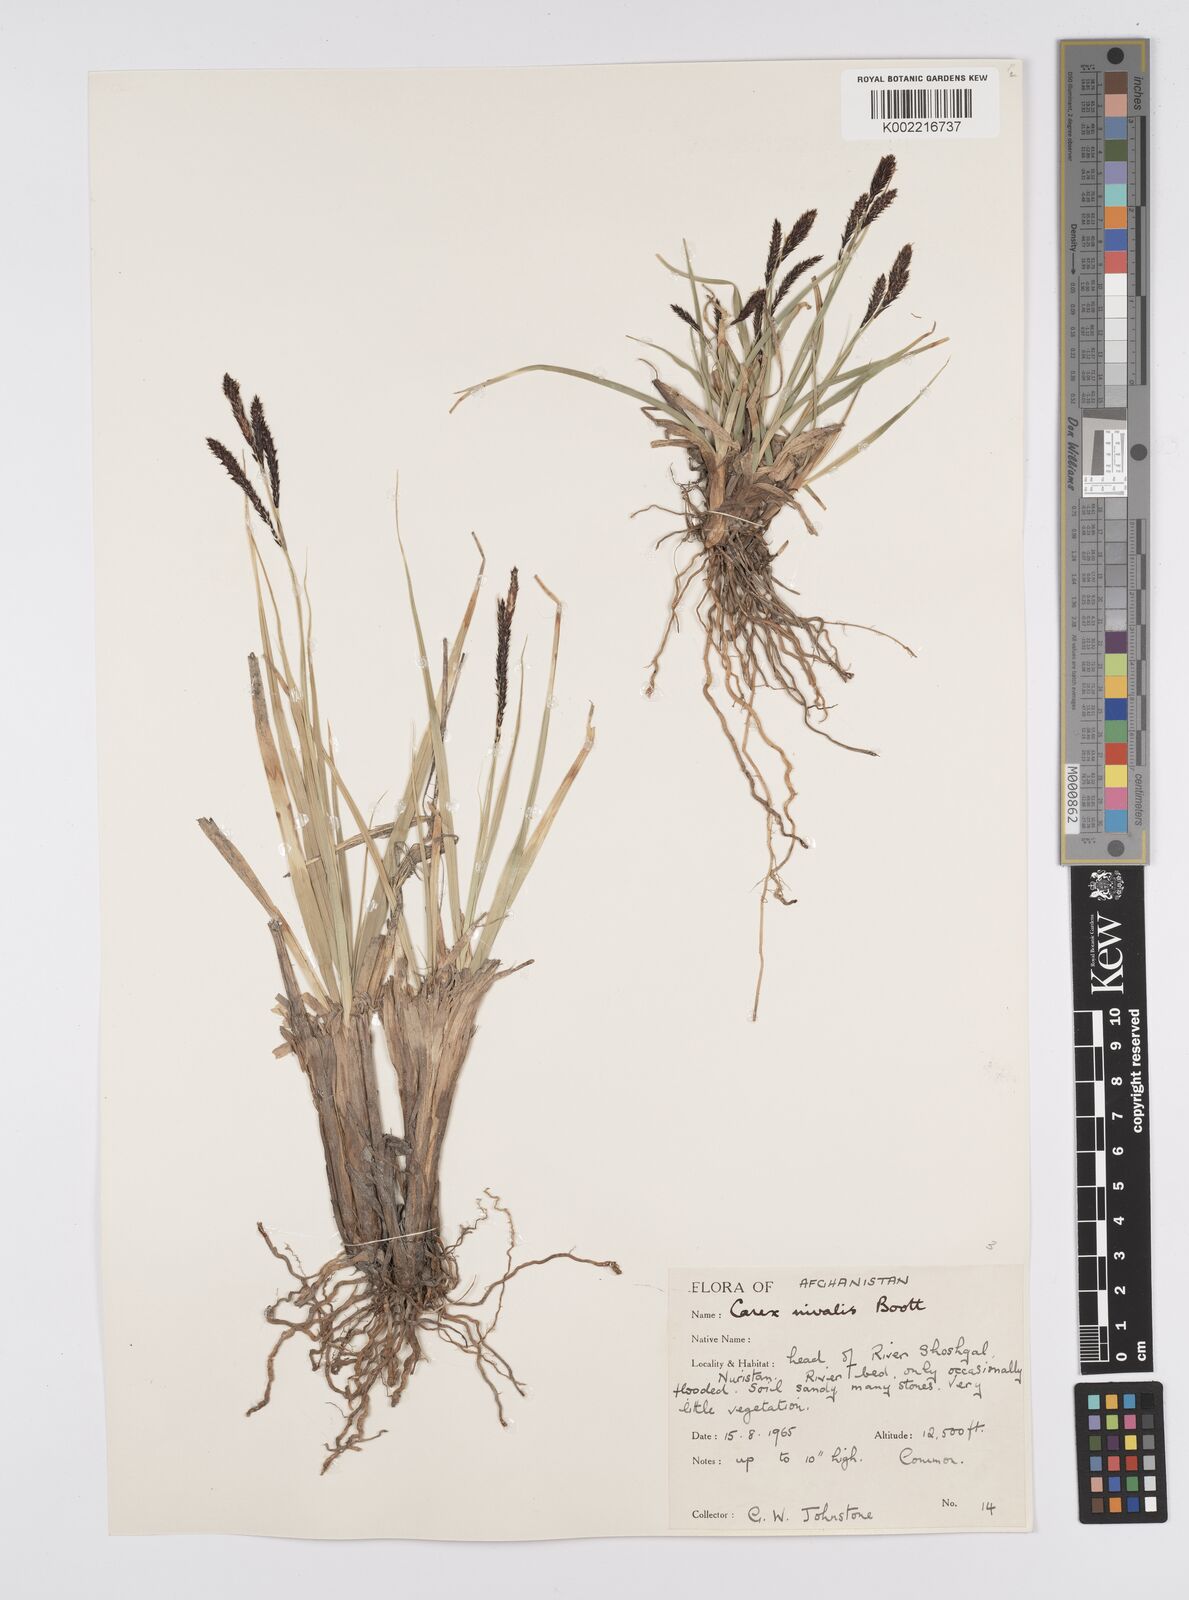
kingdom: Plantae
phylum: Tracheophyta
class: Liliopsida
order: Poales
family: Cyperaceae
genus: Carex
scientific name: Carex nivalis
